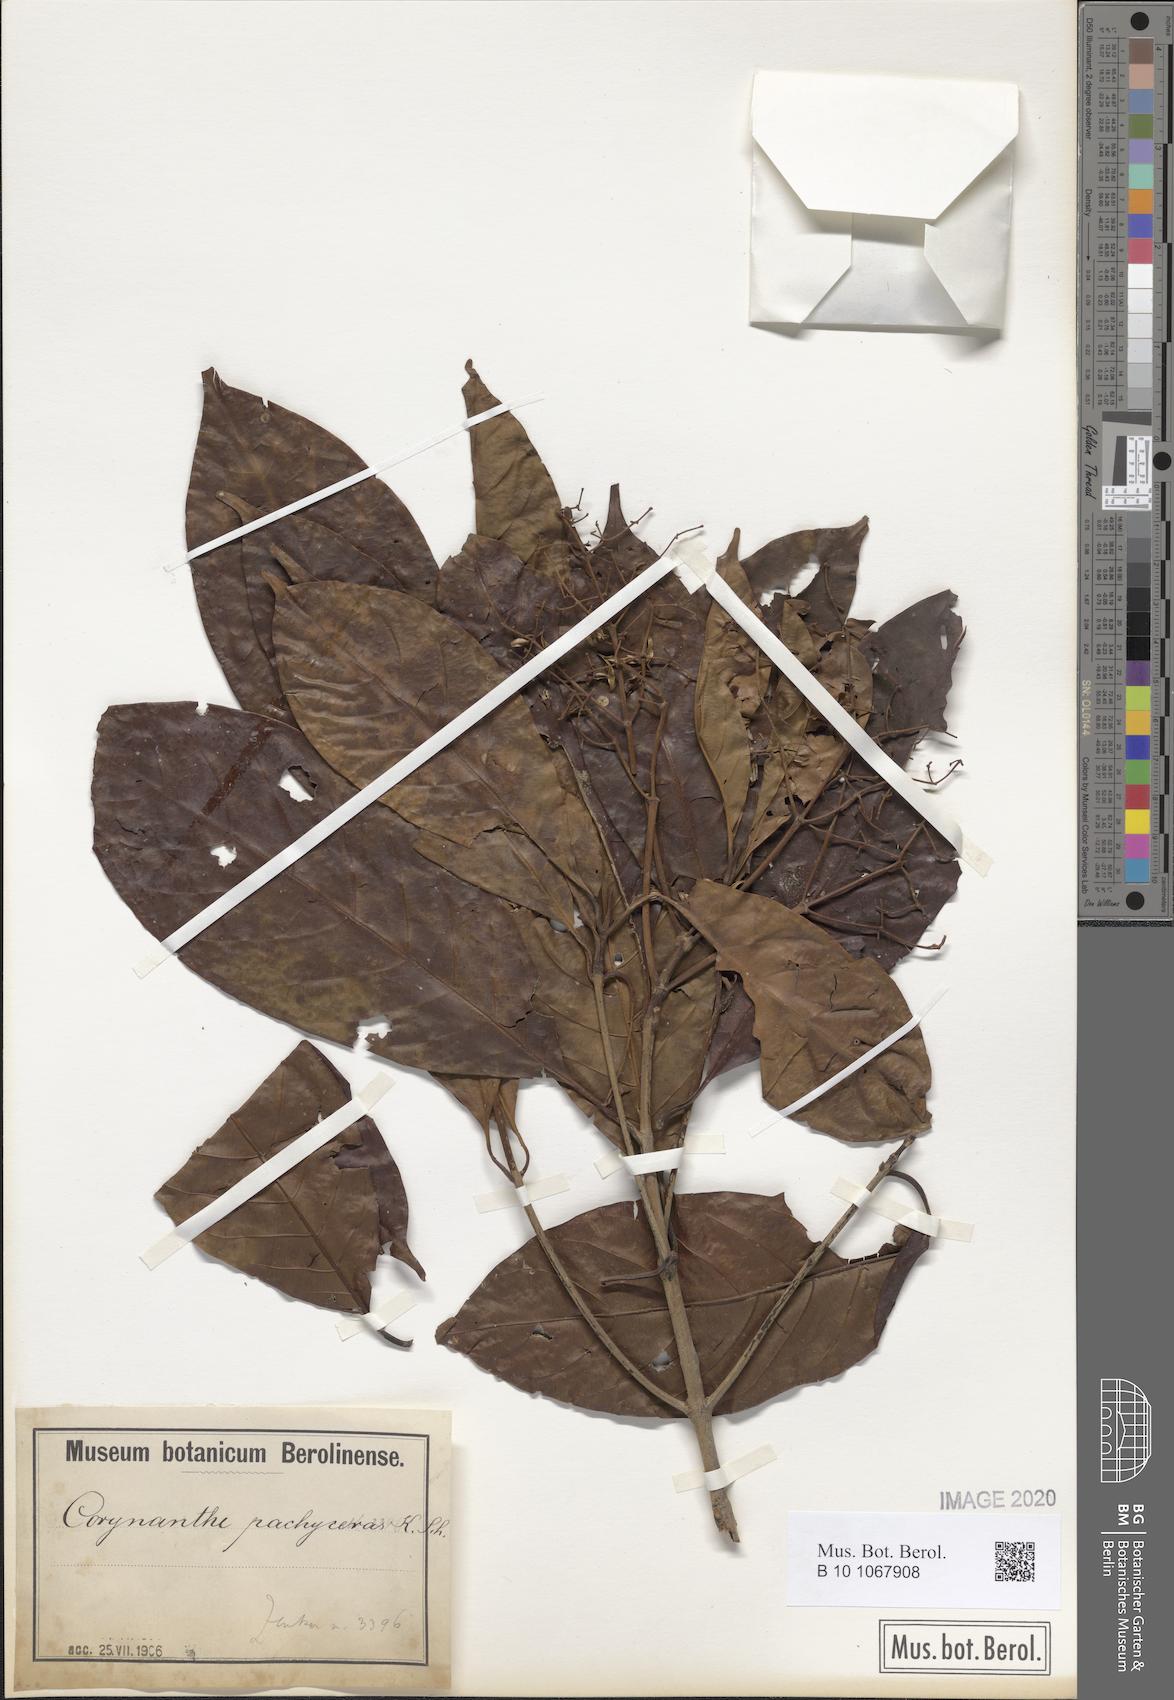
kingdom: Plantae
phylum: Tracheophyta
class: Magnoliopsida
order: Gentianales
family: Rubiaceae
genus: Corynanthe
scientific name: Corynanthe pachyceras
